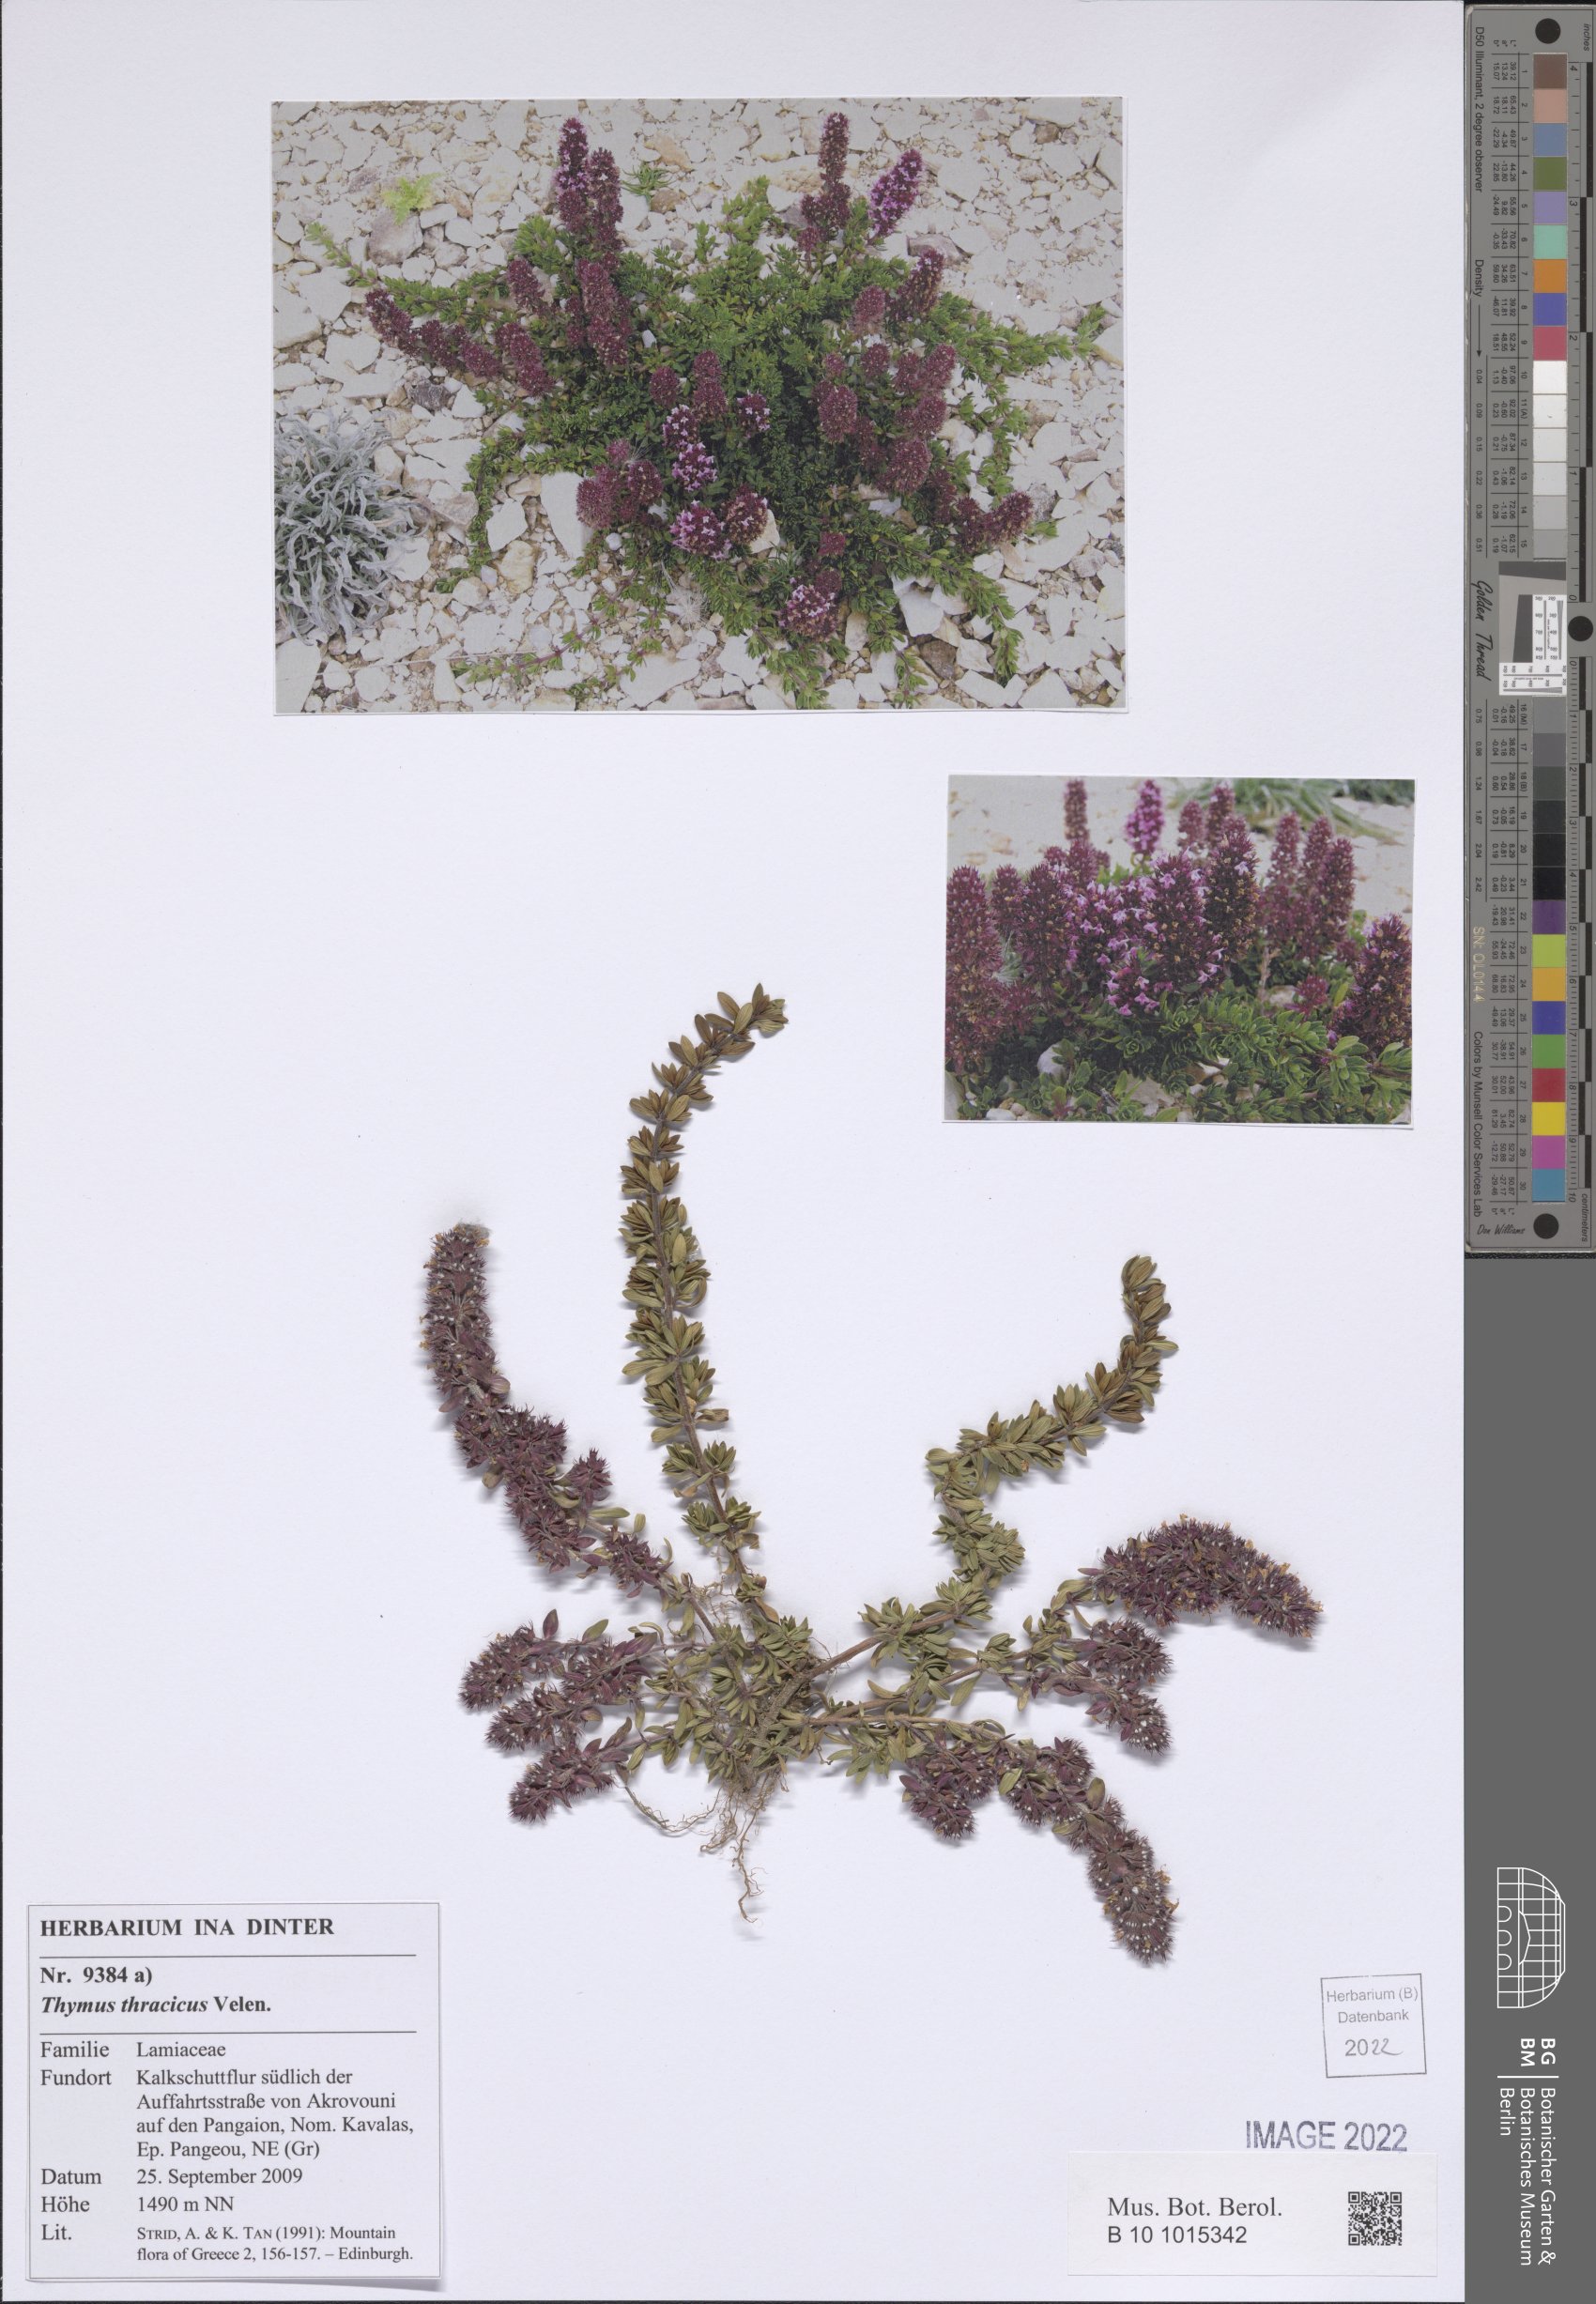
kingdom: Plantae
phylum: Tracheophyta
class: Magnoliopsida
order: Lamiales
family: Lamiaceae
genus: Thymus
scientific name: Thymus thracicus
